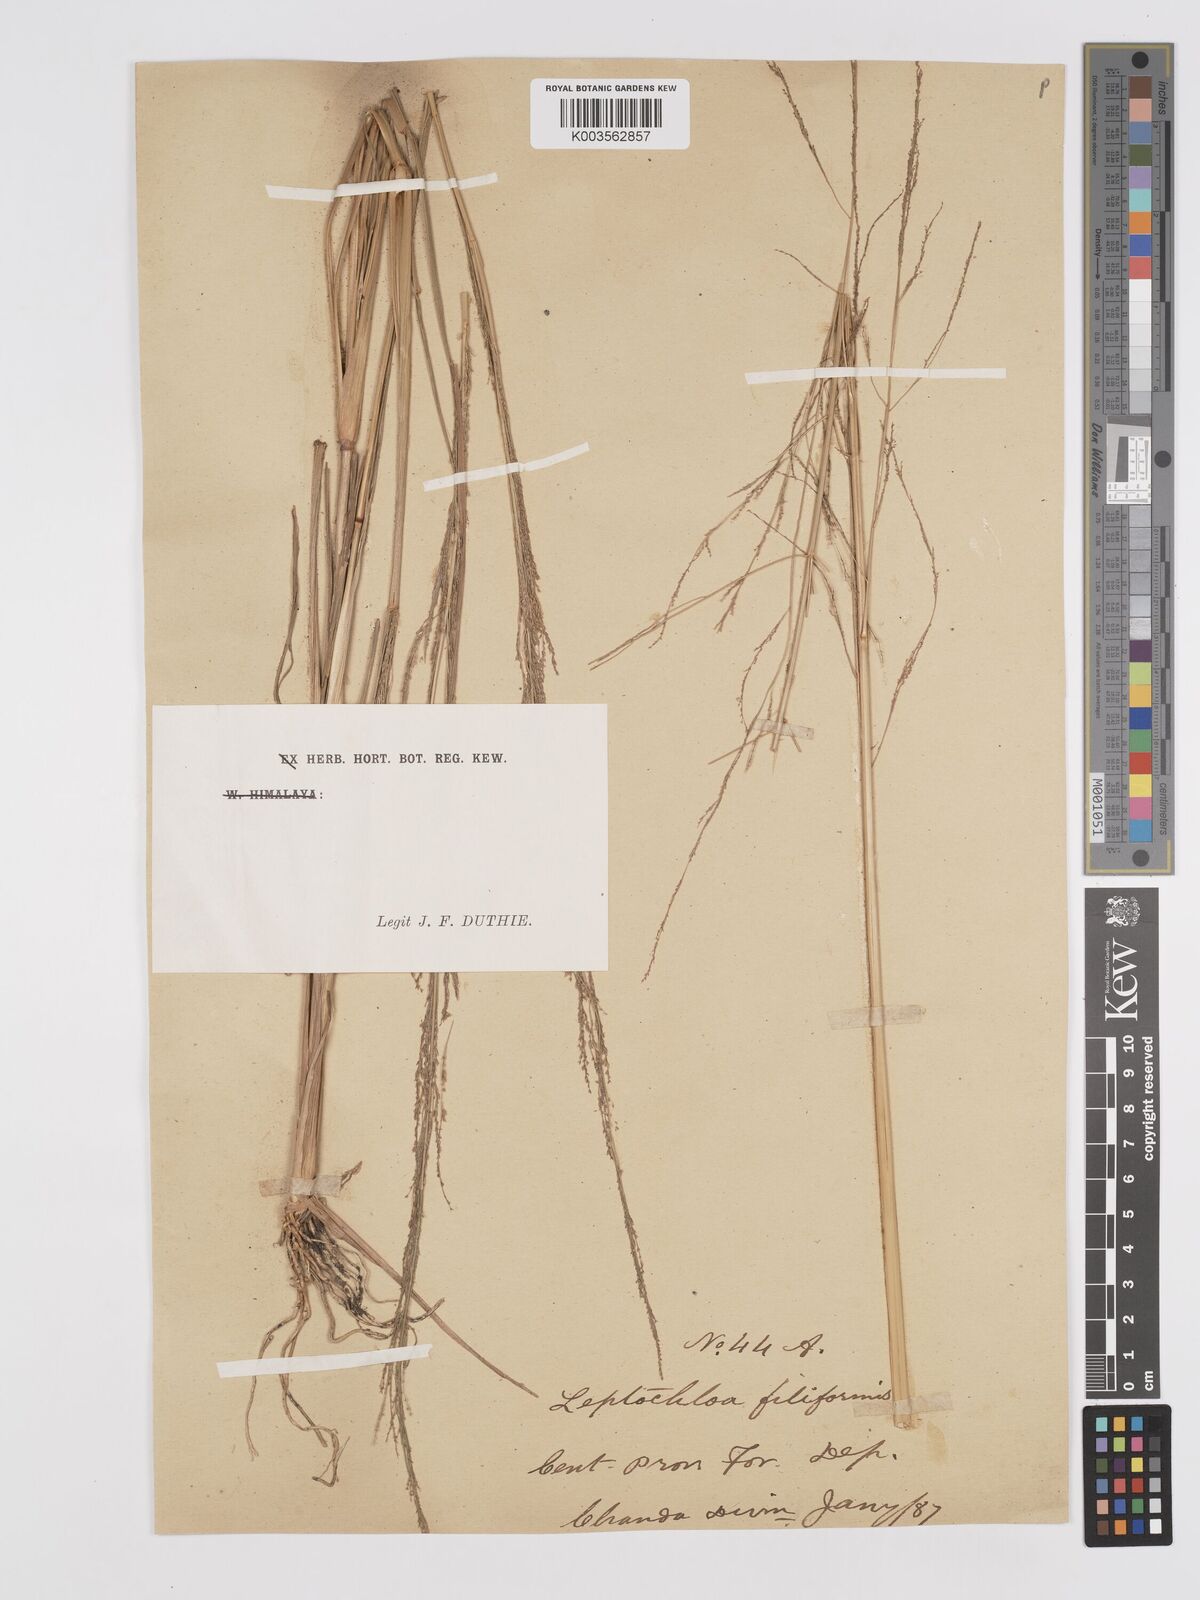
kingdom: Plantae
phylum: Tracheophyta
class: Liliopsida
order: Poales
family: Poaceae
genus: Eragrostis
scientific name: Eragrostis japonica
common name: Pond lovegrass
